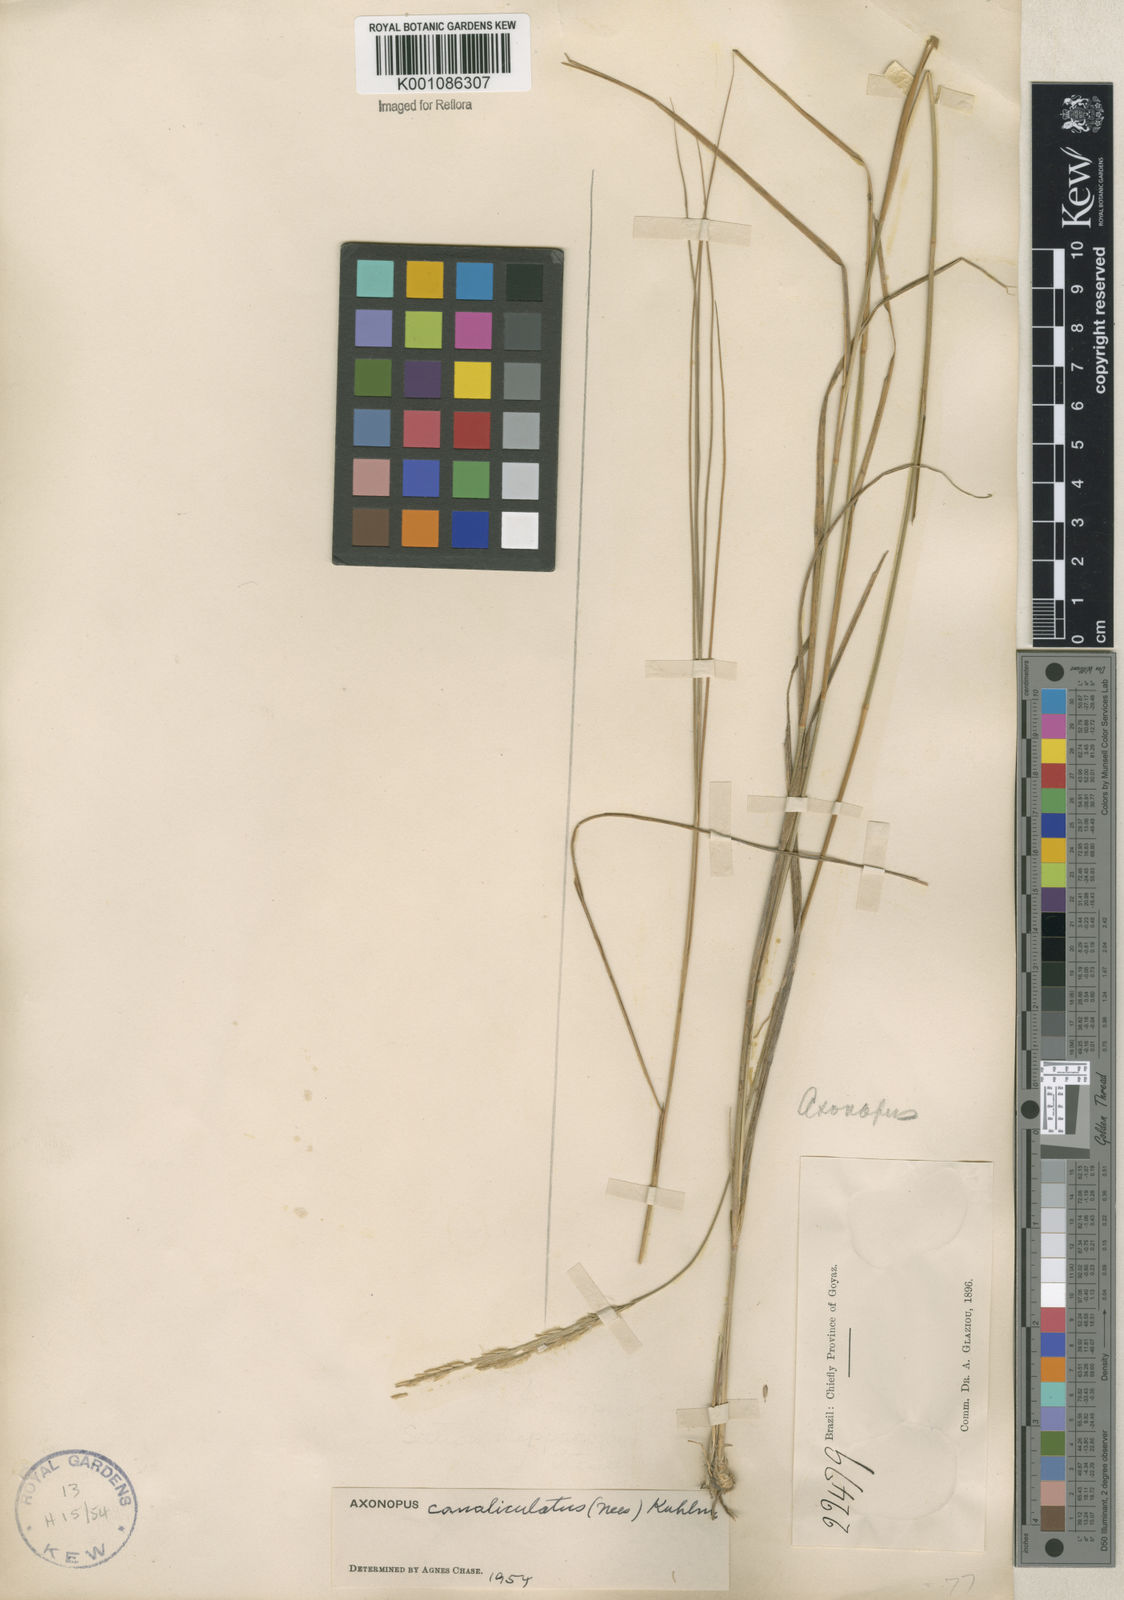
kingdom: Plantae
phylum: Tracheophyta
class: Liliopsida
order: Poales
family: Poaceae
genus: Axonopus
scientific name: Axonopus fastigiatus
